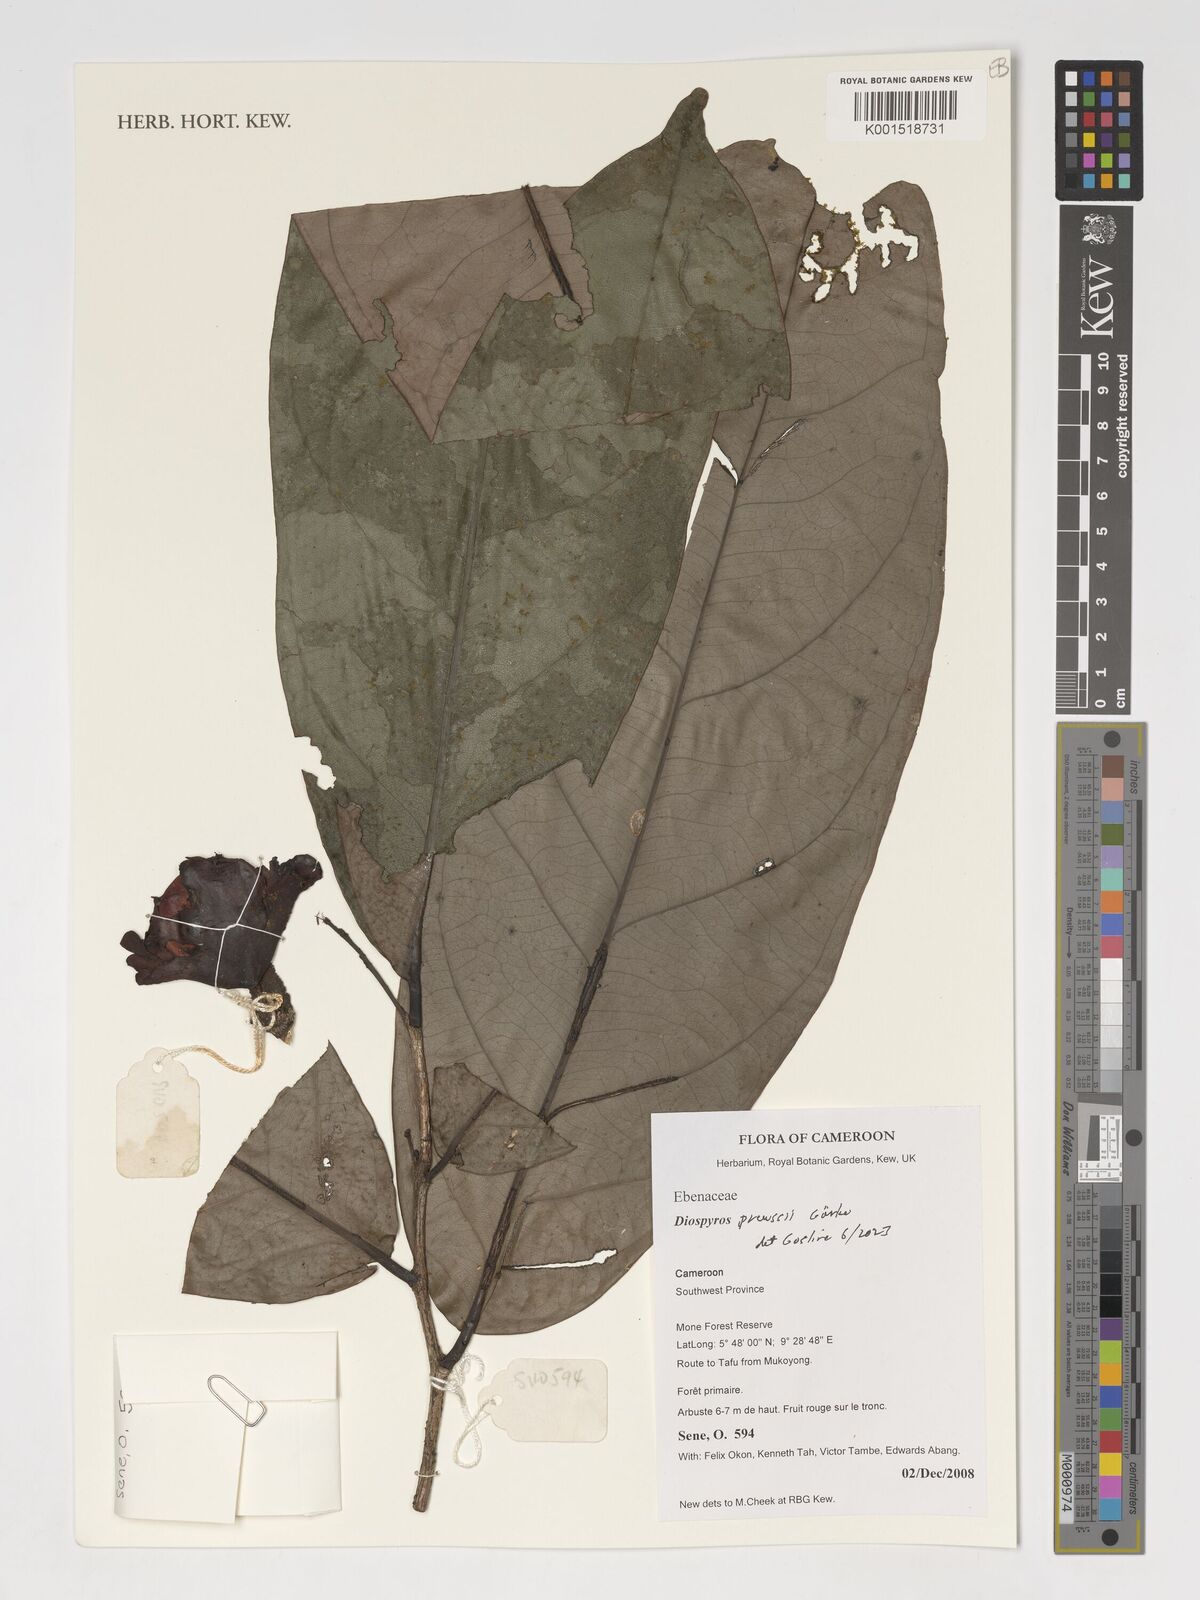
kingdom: Plantae
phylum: Tracheophyta
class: Magnoliopsida
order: Ericales
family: Ebenaceae
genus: Diospyros
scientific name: Diospyros preussii
